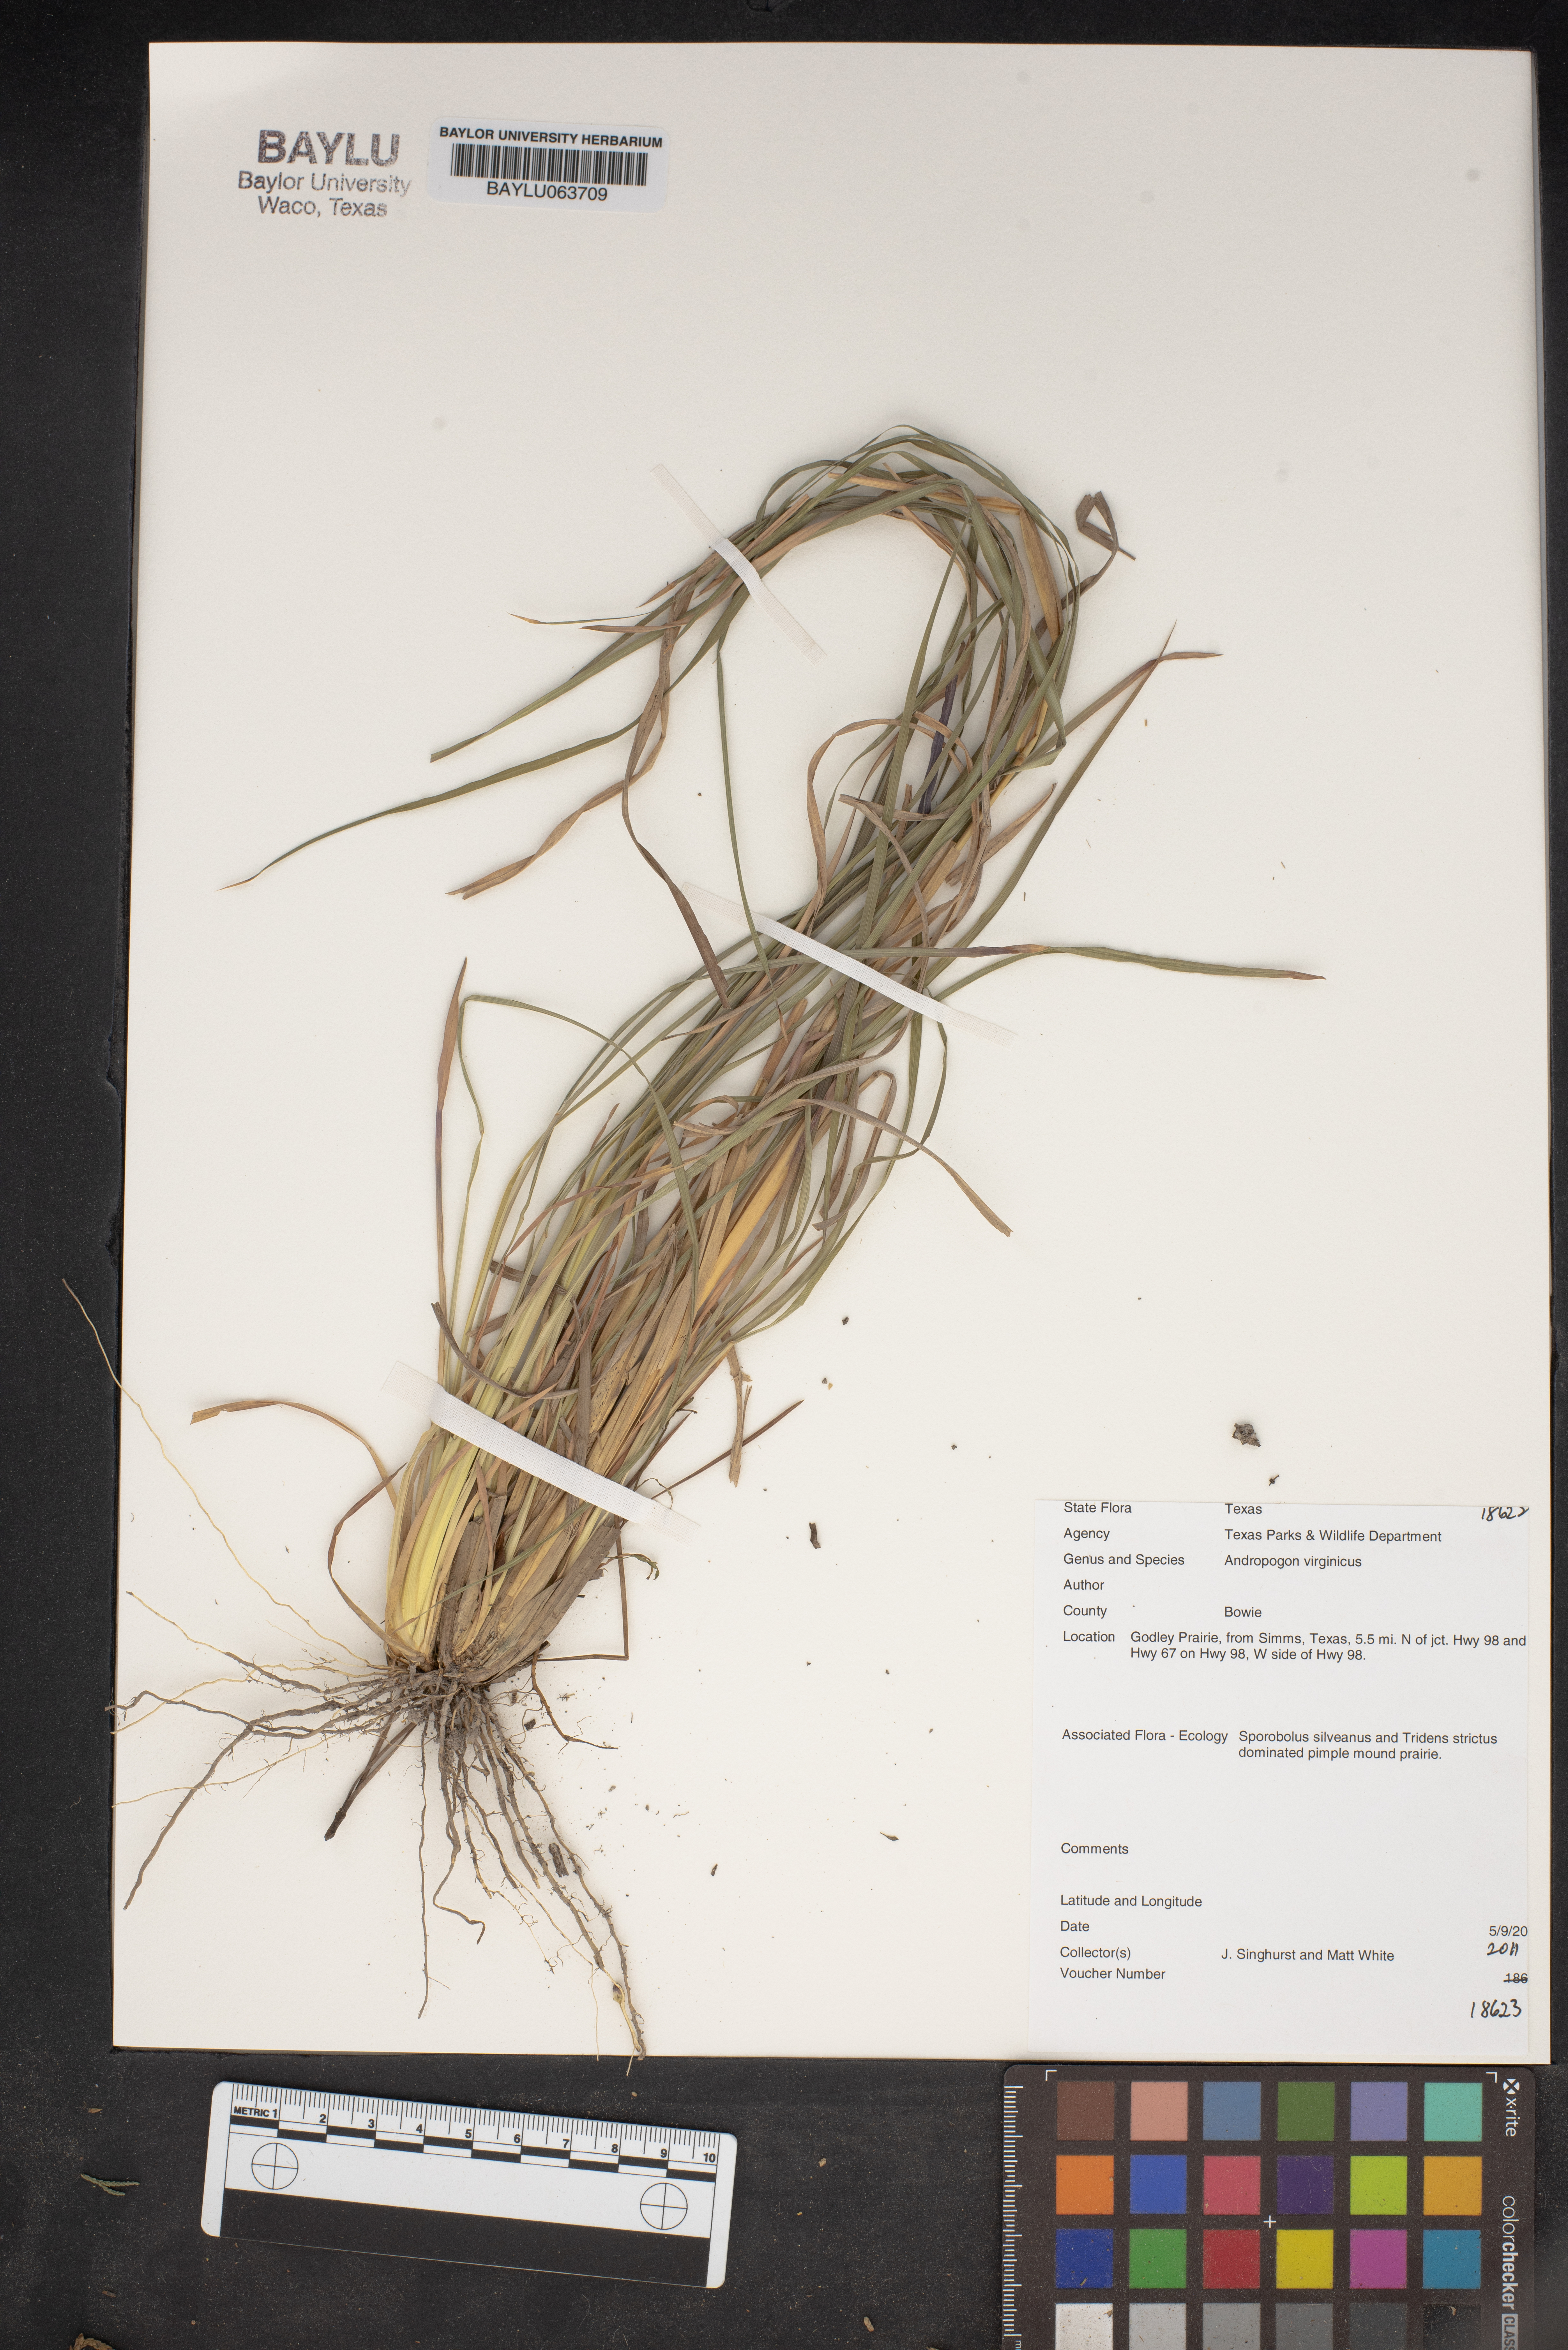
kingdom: Plantae
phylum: Tracheophyta
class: Liliopsida
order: Poales
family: Poaceae
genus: Andropogon
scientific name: Andropogon virginicus
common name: Broomsedge bluestem
